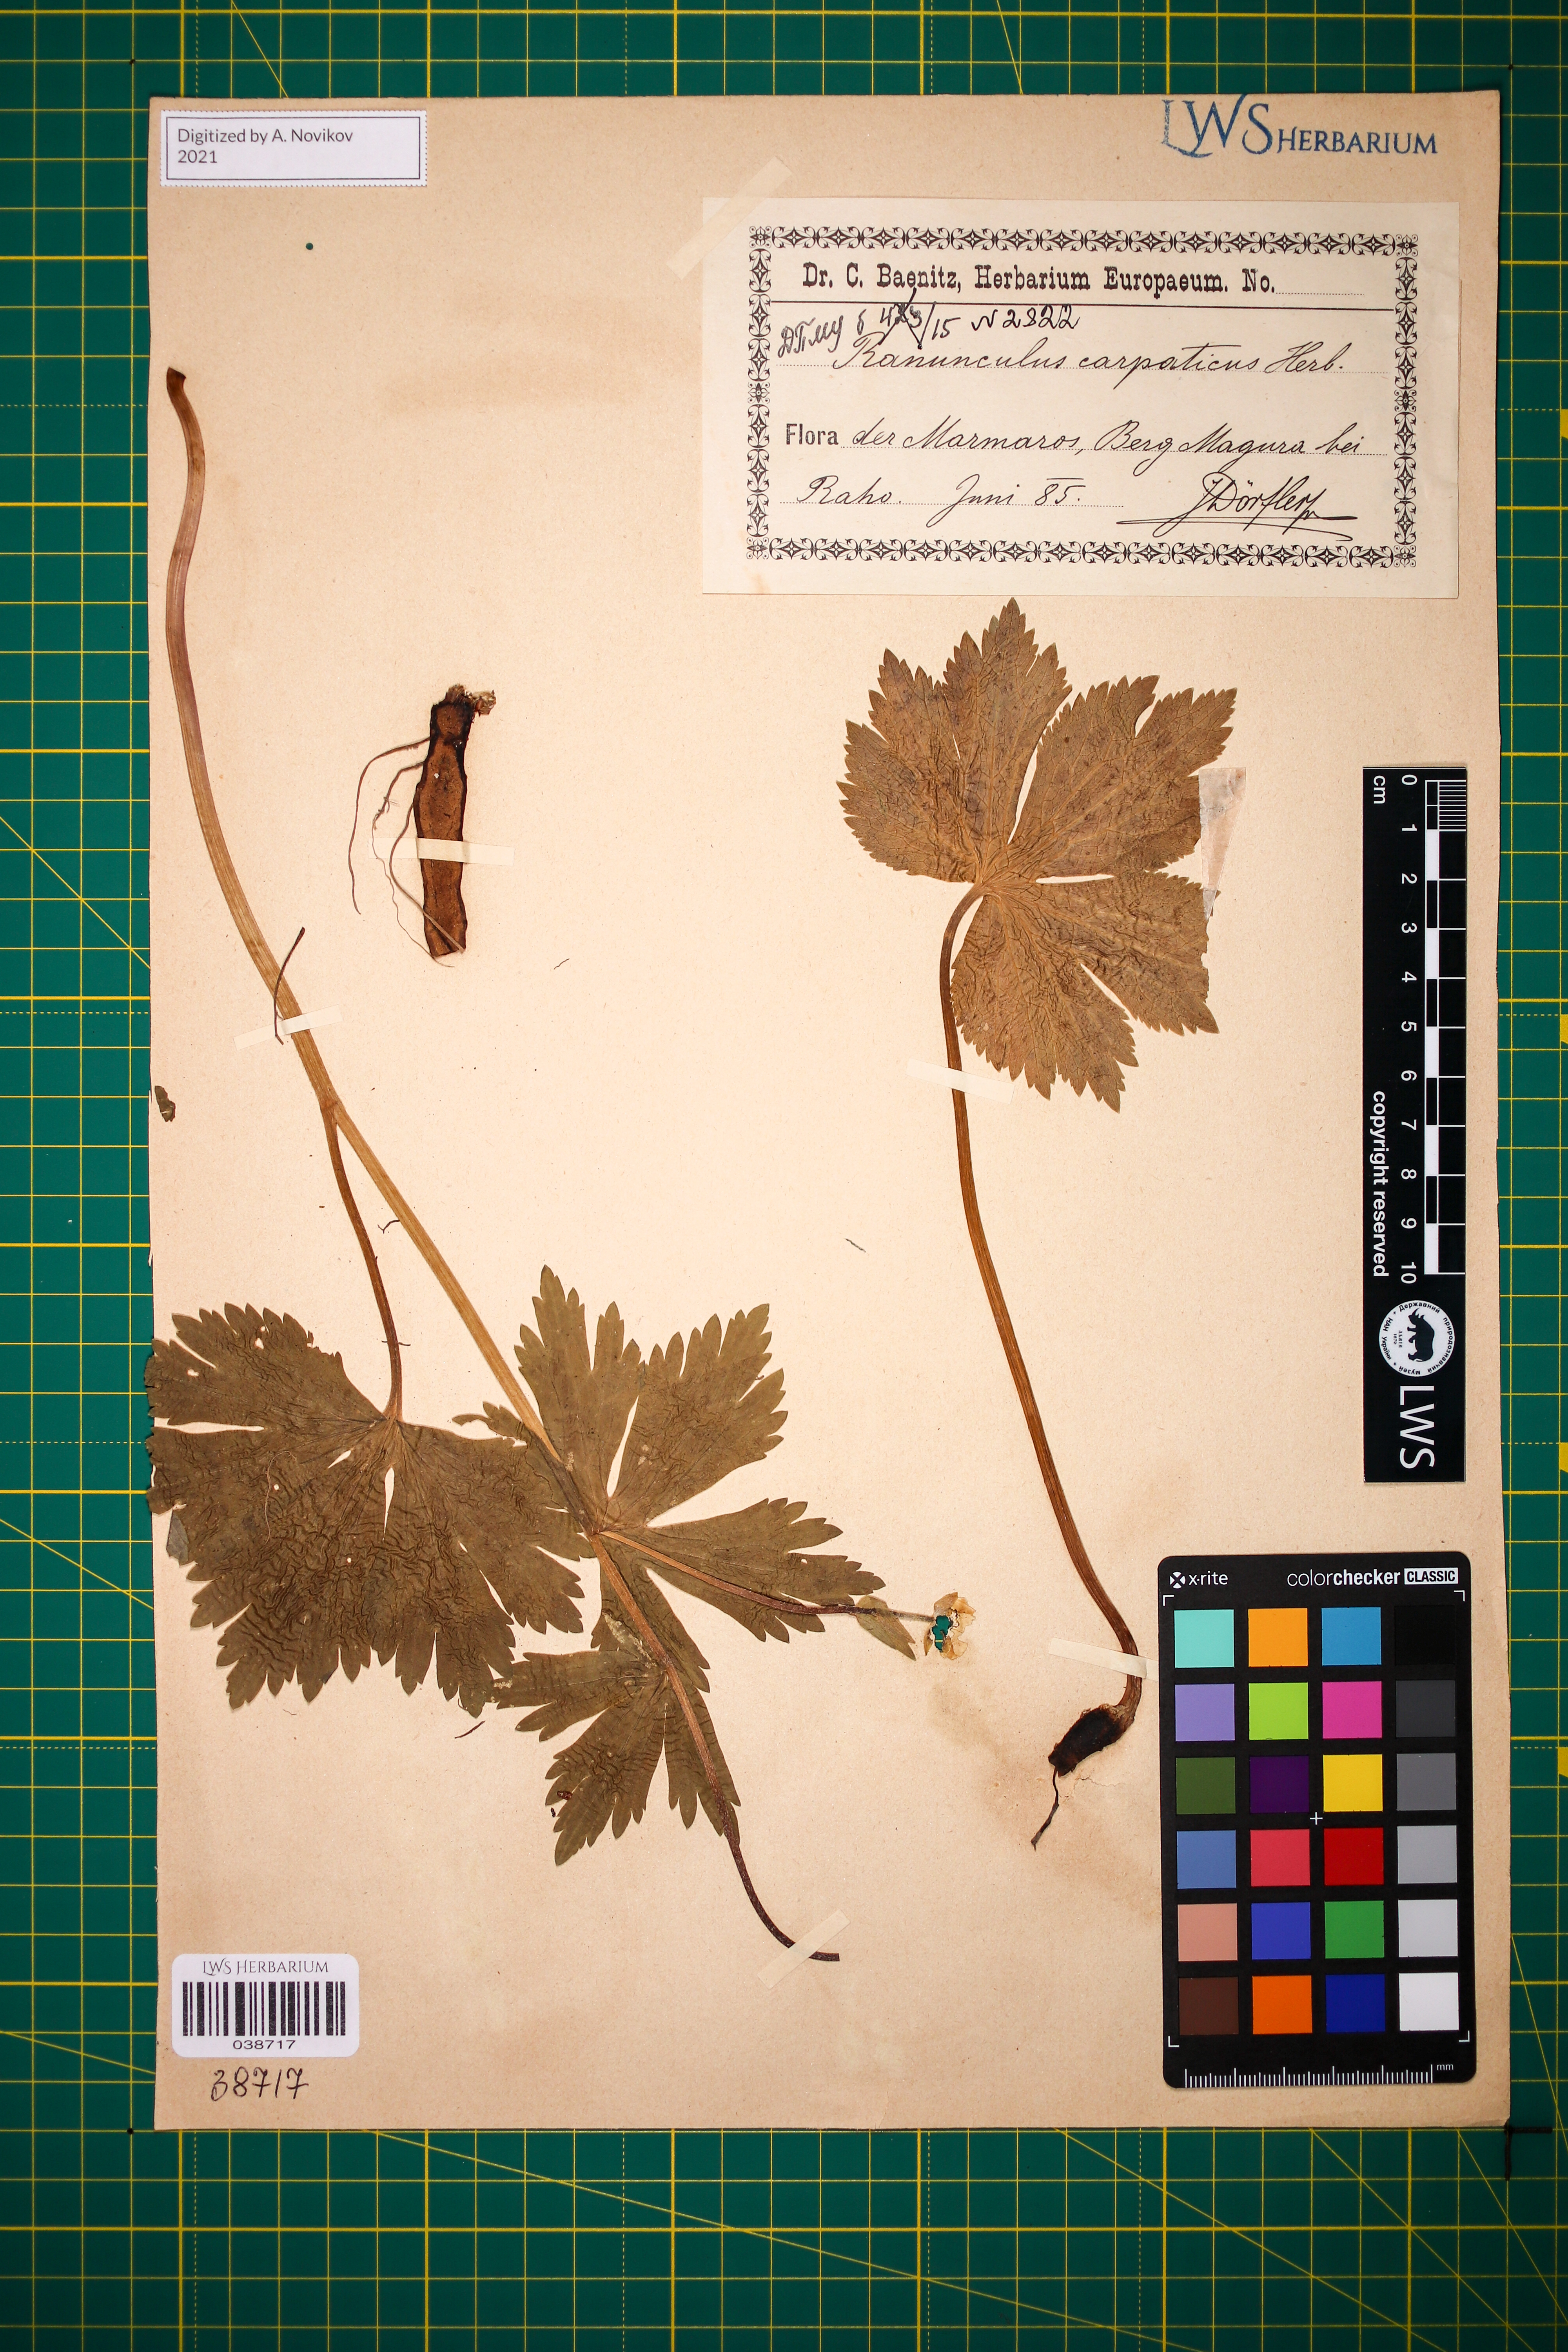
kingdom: Plantae
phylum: Tracheophyta
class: Magnoliopsida
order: Ranunculales
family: Ranunculaceae
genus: Ranunculus
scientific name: Ranunculus carpaticus
